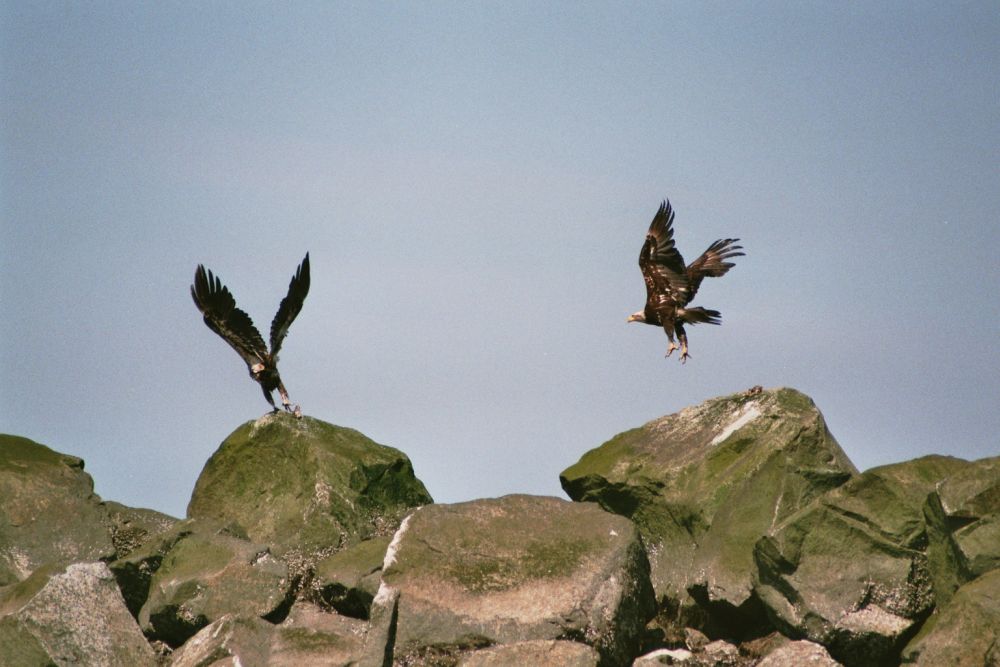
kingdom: Animalia
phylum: Chordata
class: Aves
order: Accipitriformes
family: Accipitridae
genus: Haliaeetus
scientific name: Haliaeetus leucocephalus
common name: Bald eagle
